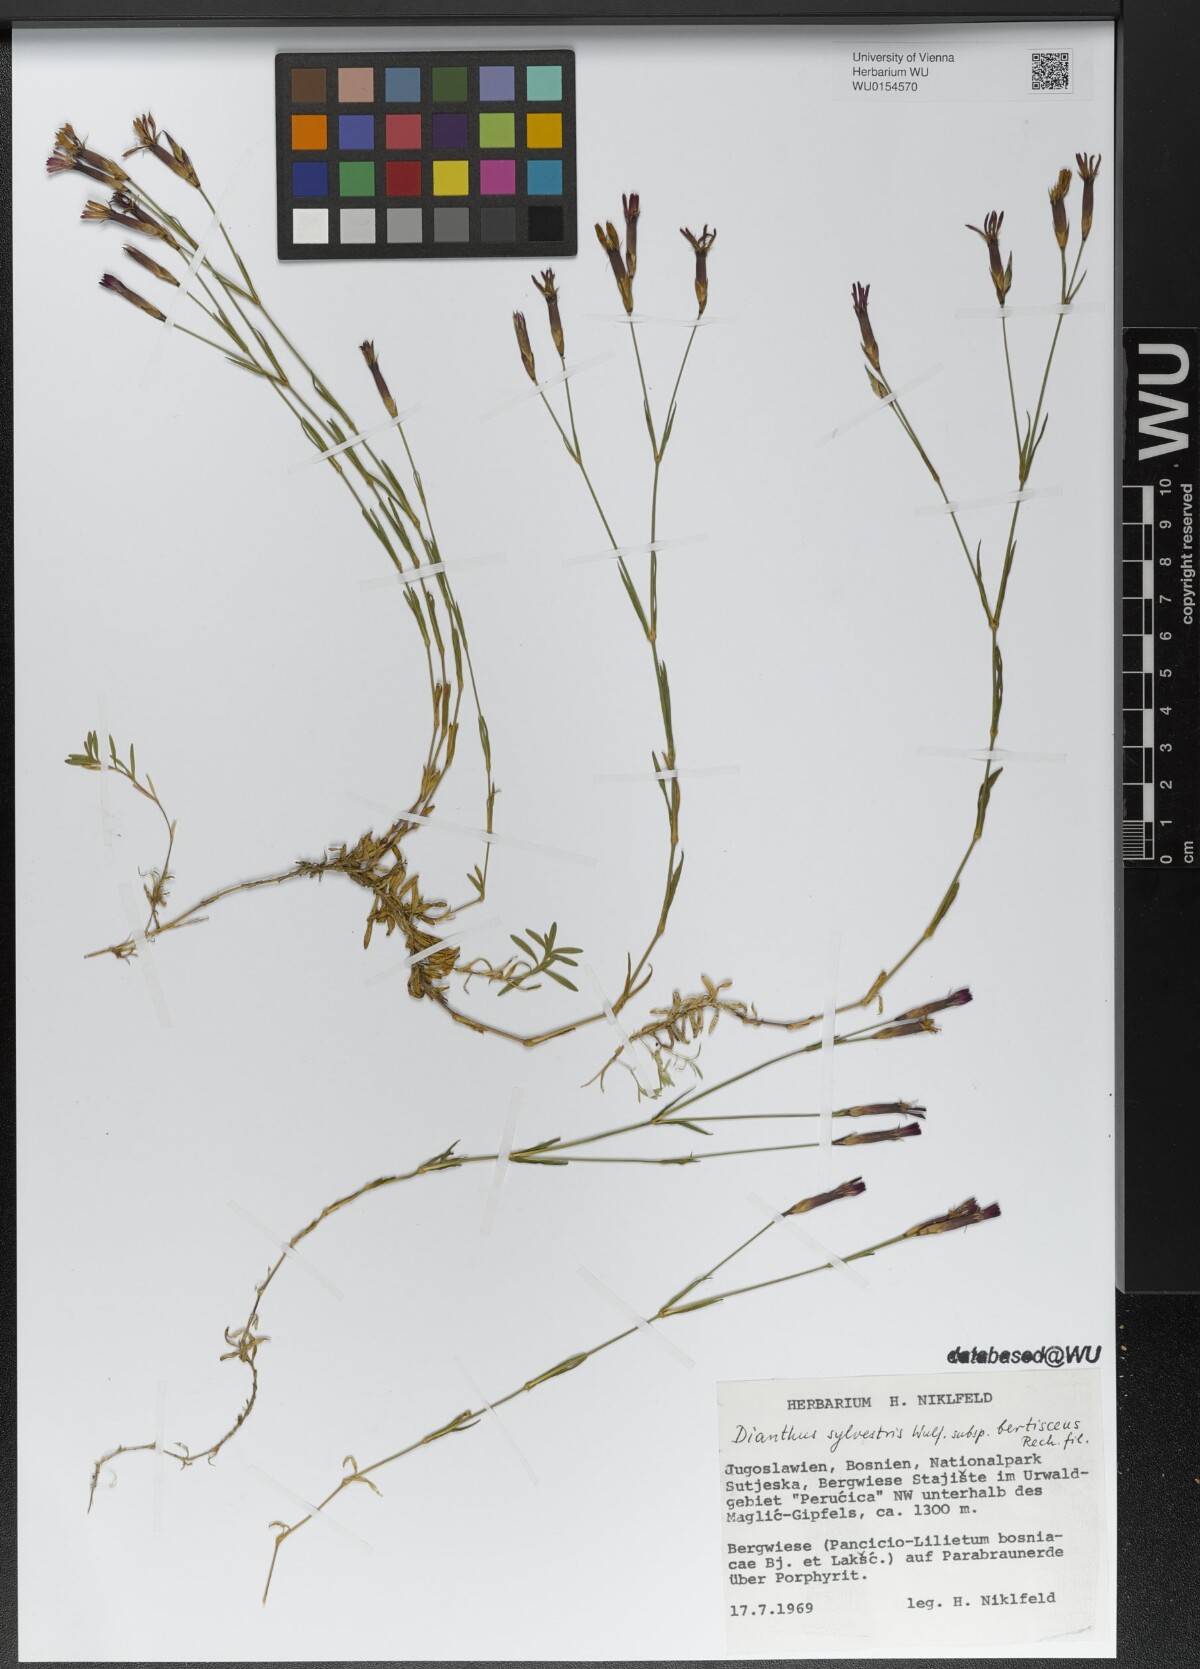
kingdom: Plantae
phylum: Tracheophyta
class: Magnoliopsida
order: Caryophyllales
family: Caryophyllaceae
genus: Dianthus
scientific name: Dianthus sylvestris
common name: Wood pink
